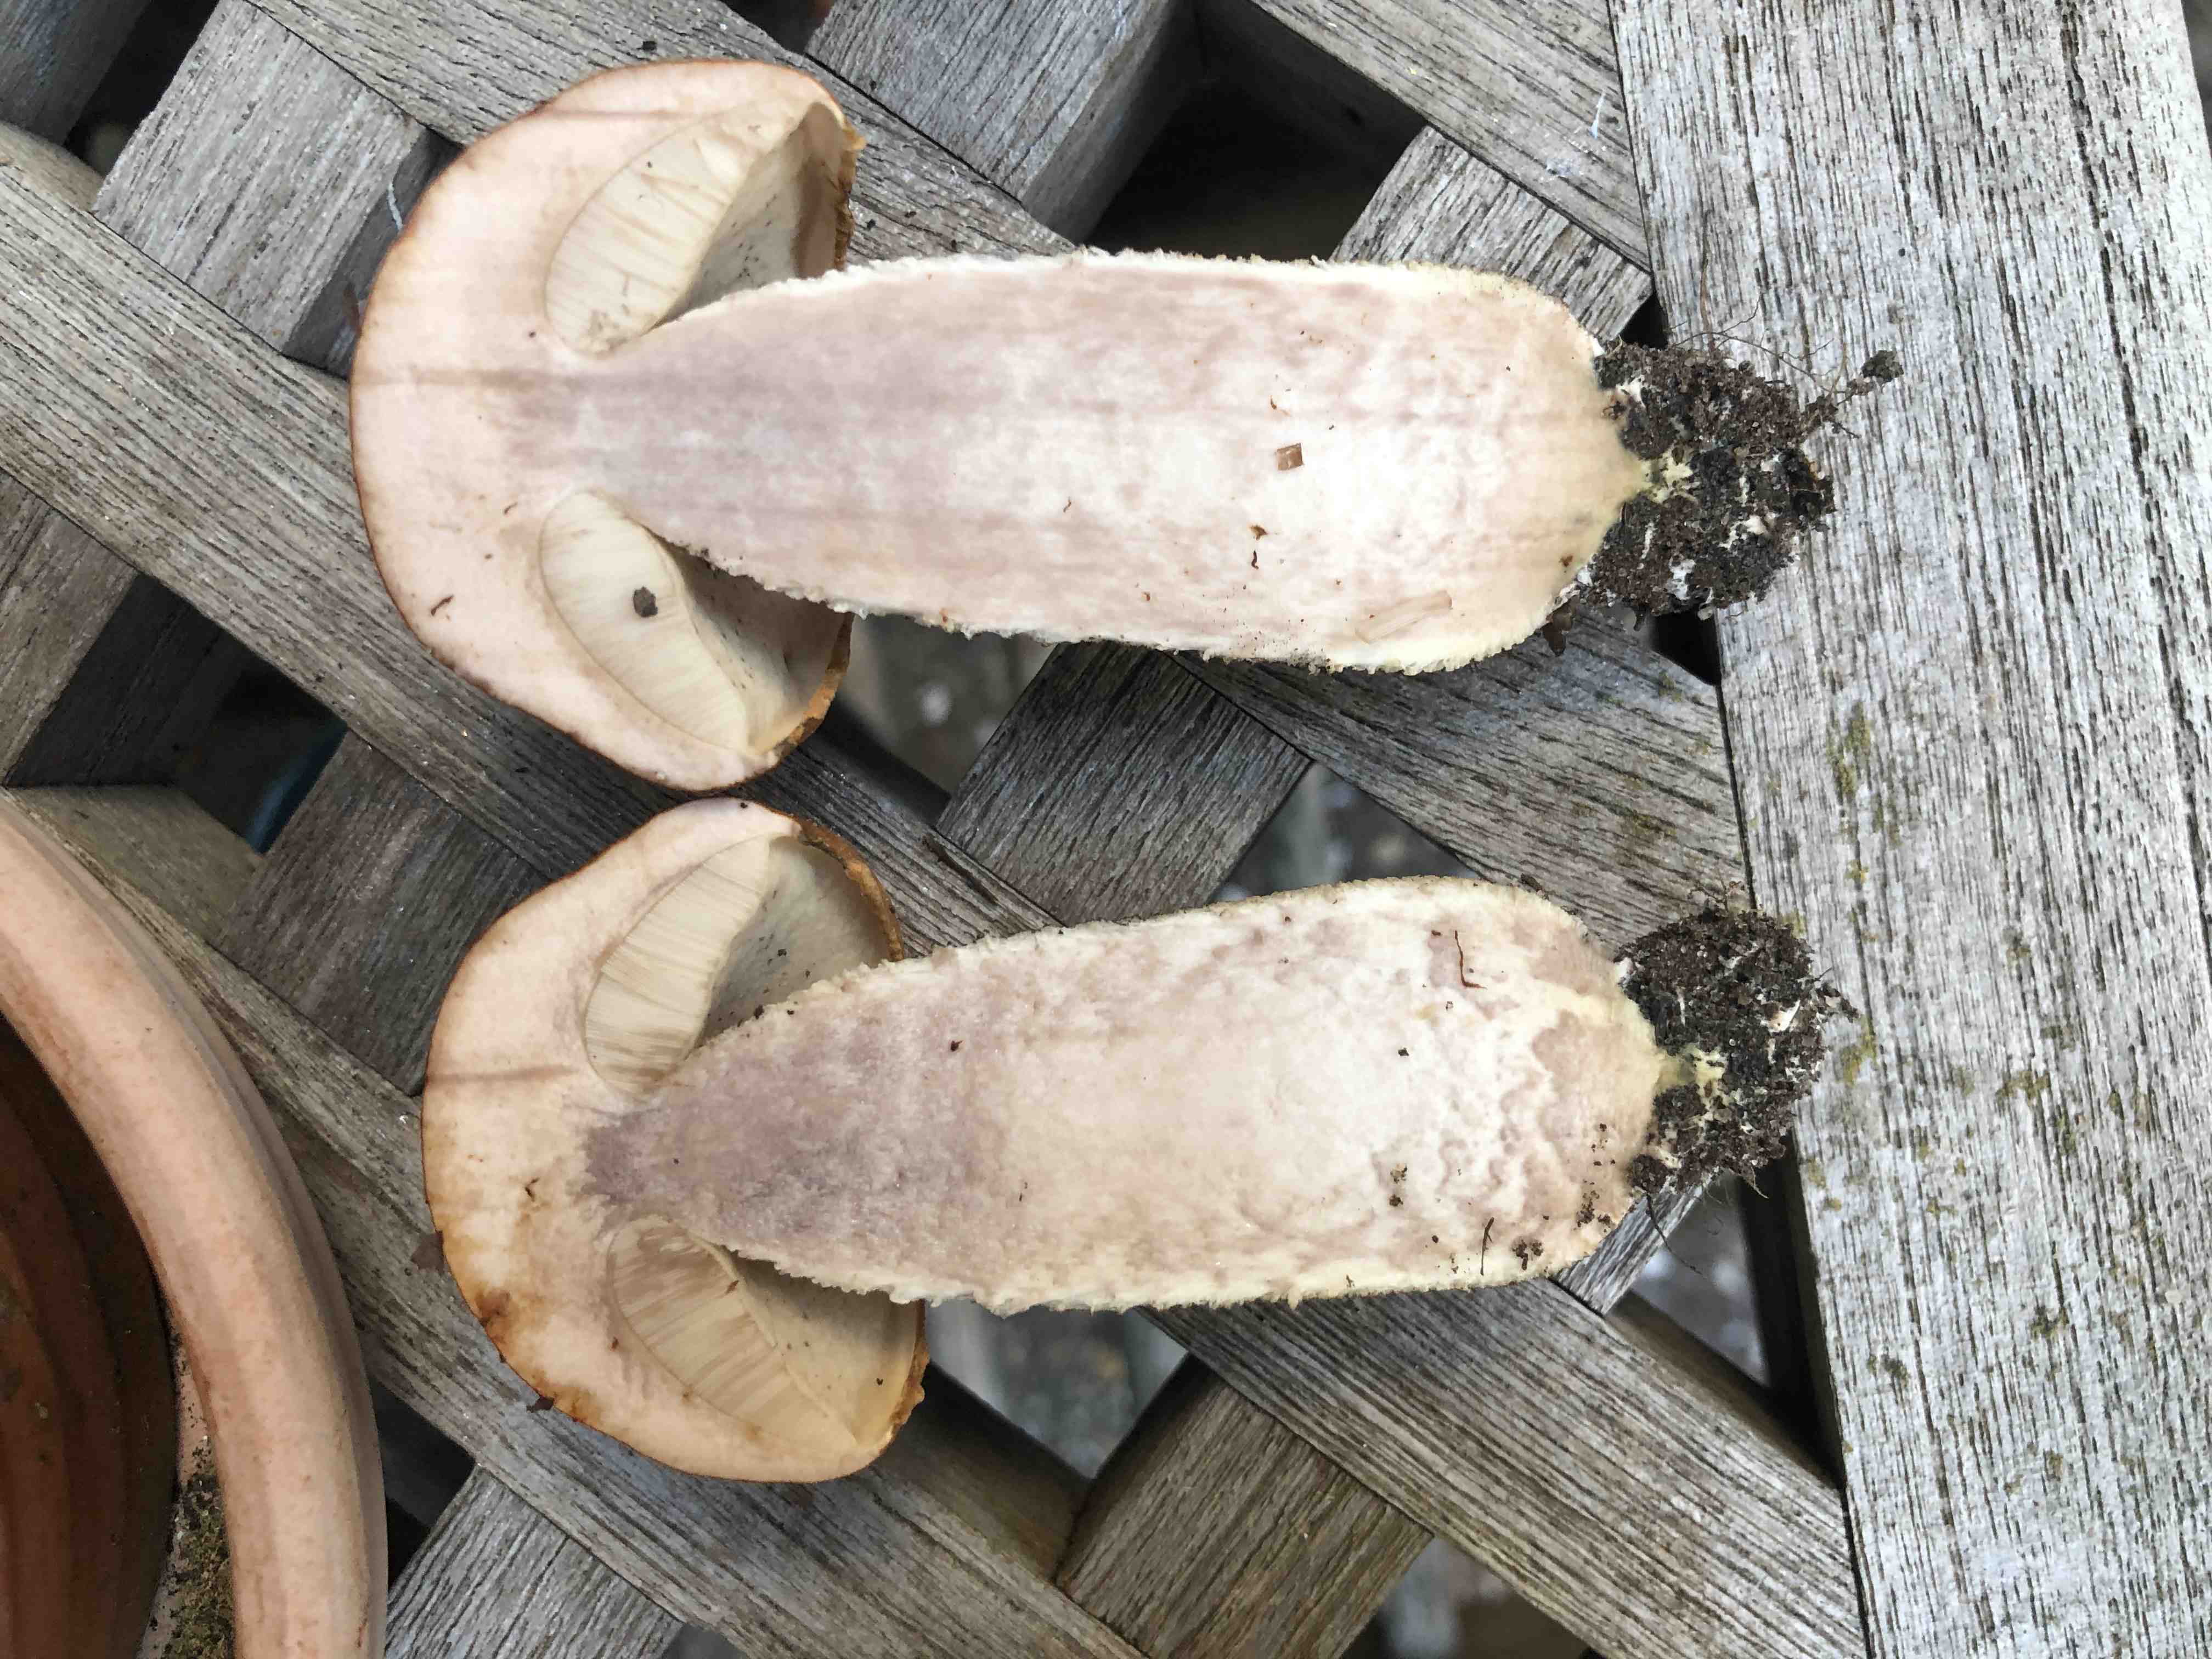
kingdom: Fungi
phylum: Basidiomycota
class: Agaricomycetes
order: Boletales
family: Boletaceae
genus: Leccinum
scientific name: Leccinum albostipitatum
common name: aspe-skælrørhat
